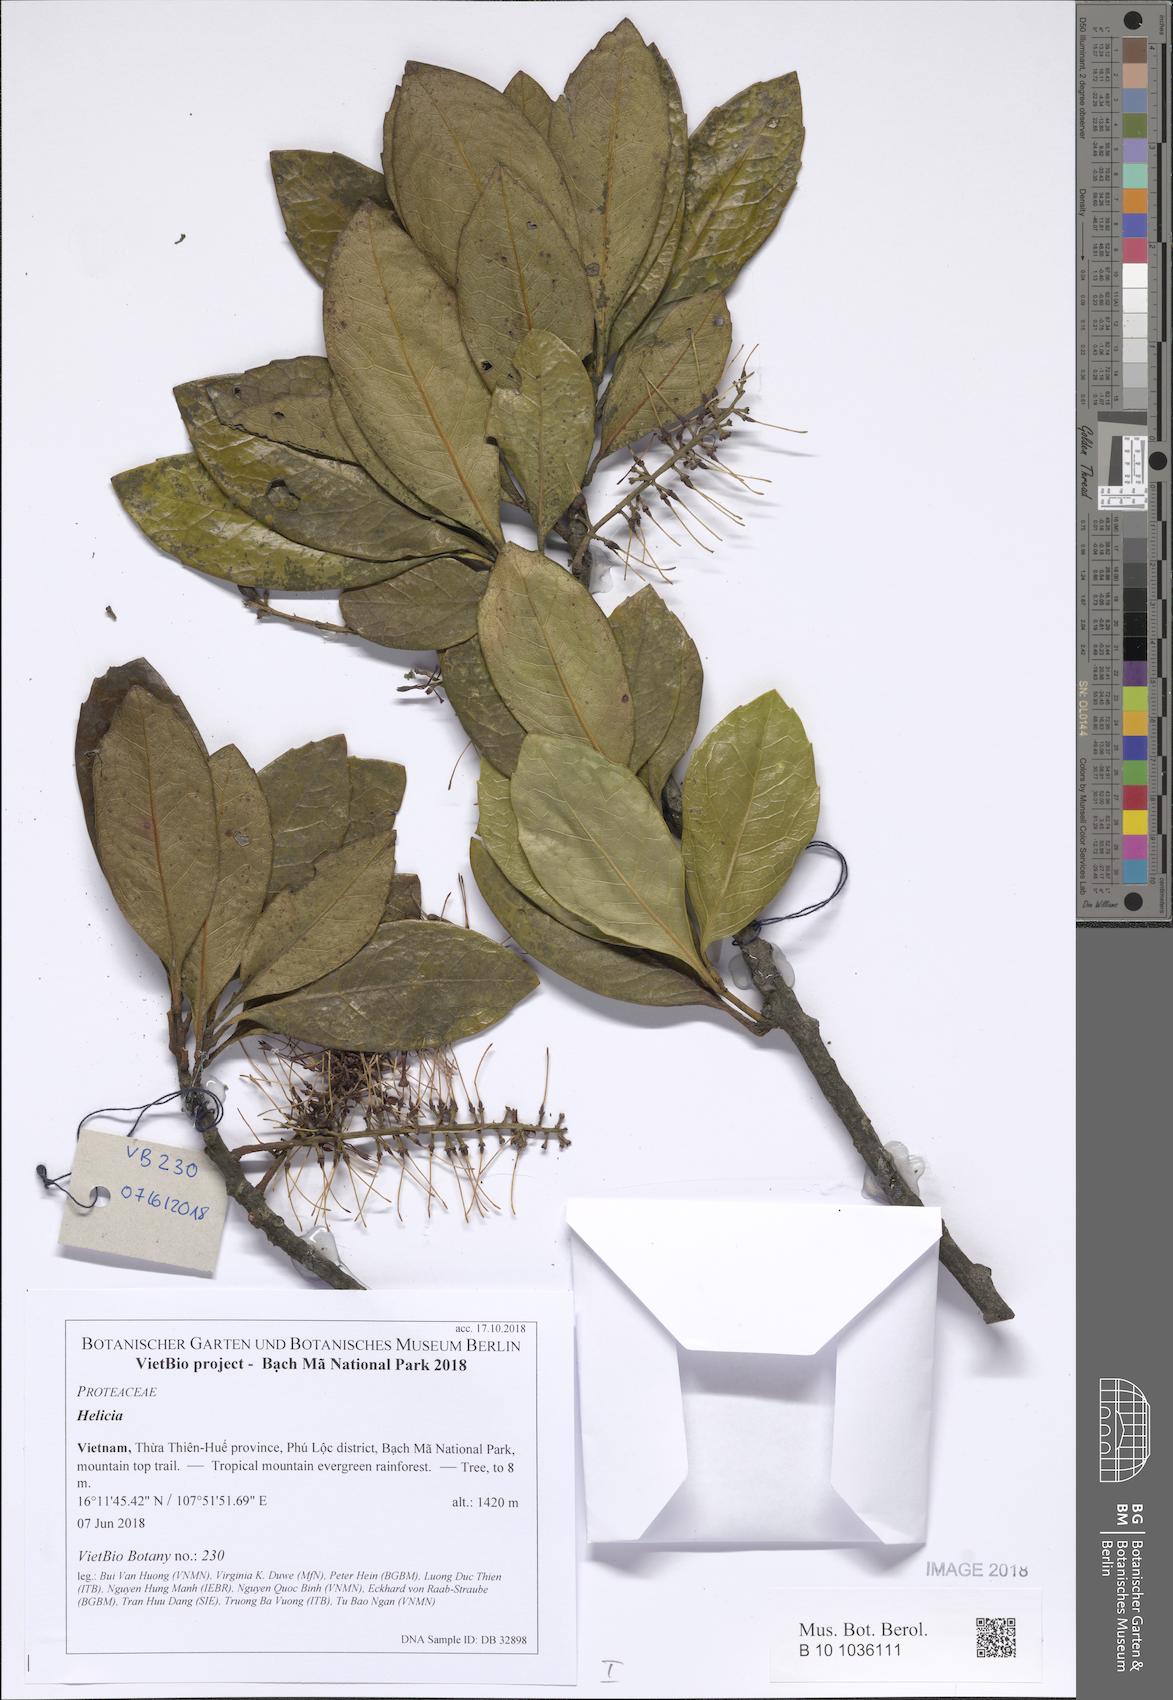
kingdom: Plantae
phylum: Tracheophyta
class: Magnoliopsida
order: Proteales
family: Proteaceae
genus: Helicia
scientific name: Helicia nilagirica
